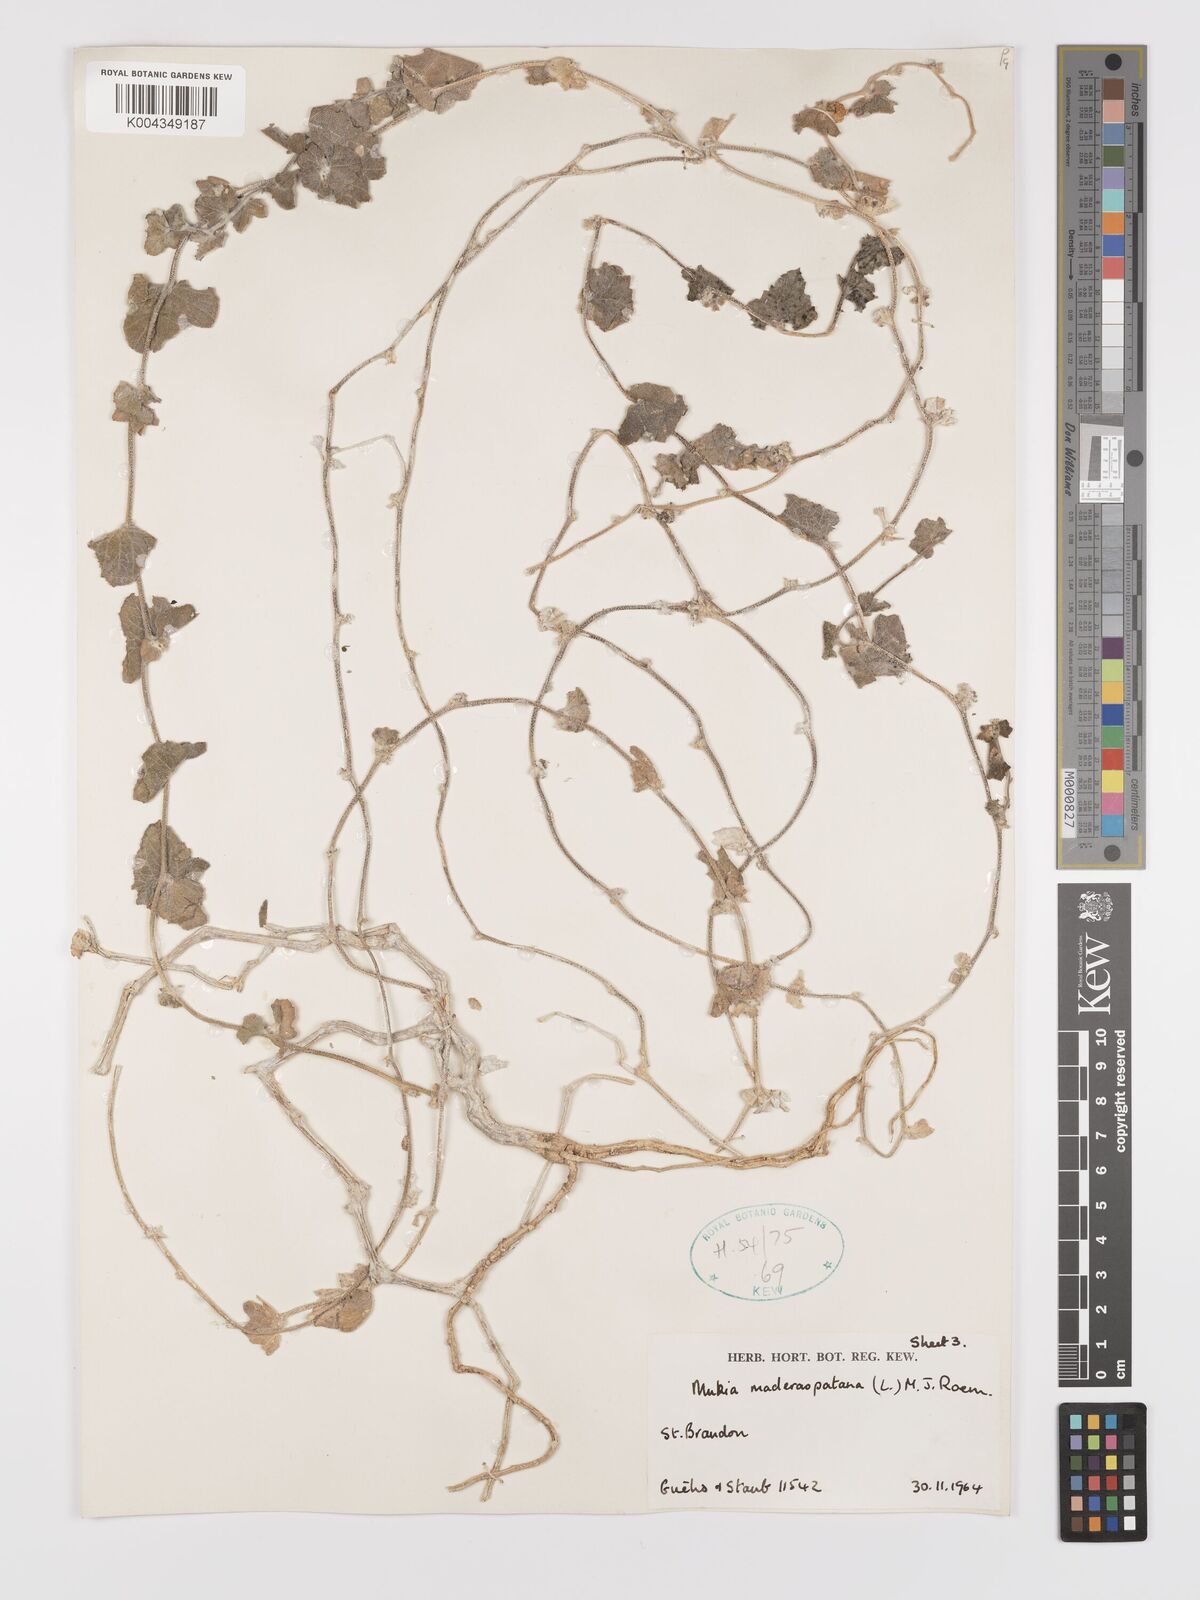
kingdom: Plantae
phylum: Tracheophyta
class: Magnoliopsida
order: Cucurbitales
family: Cucurbitaceae
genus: Cucumis
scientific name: Cucumis maderaspatanus
